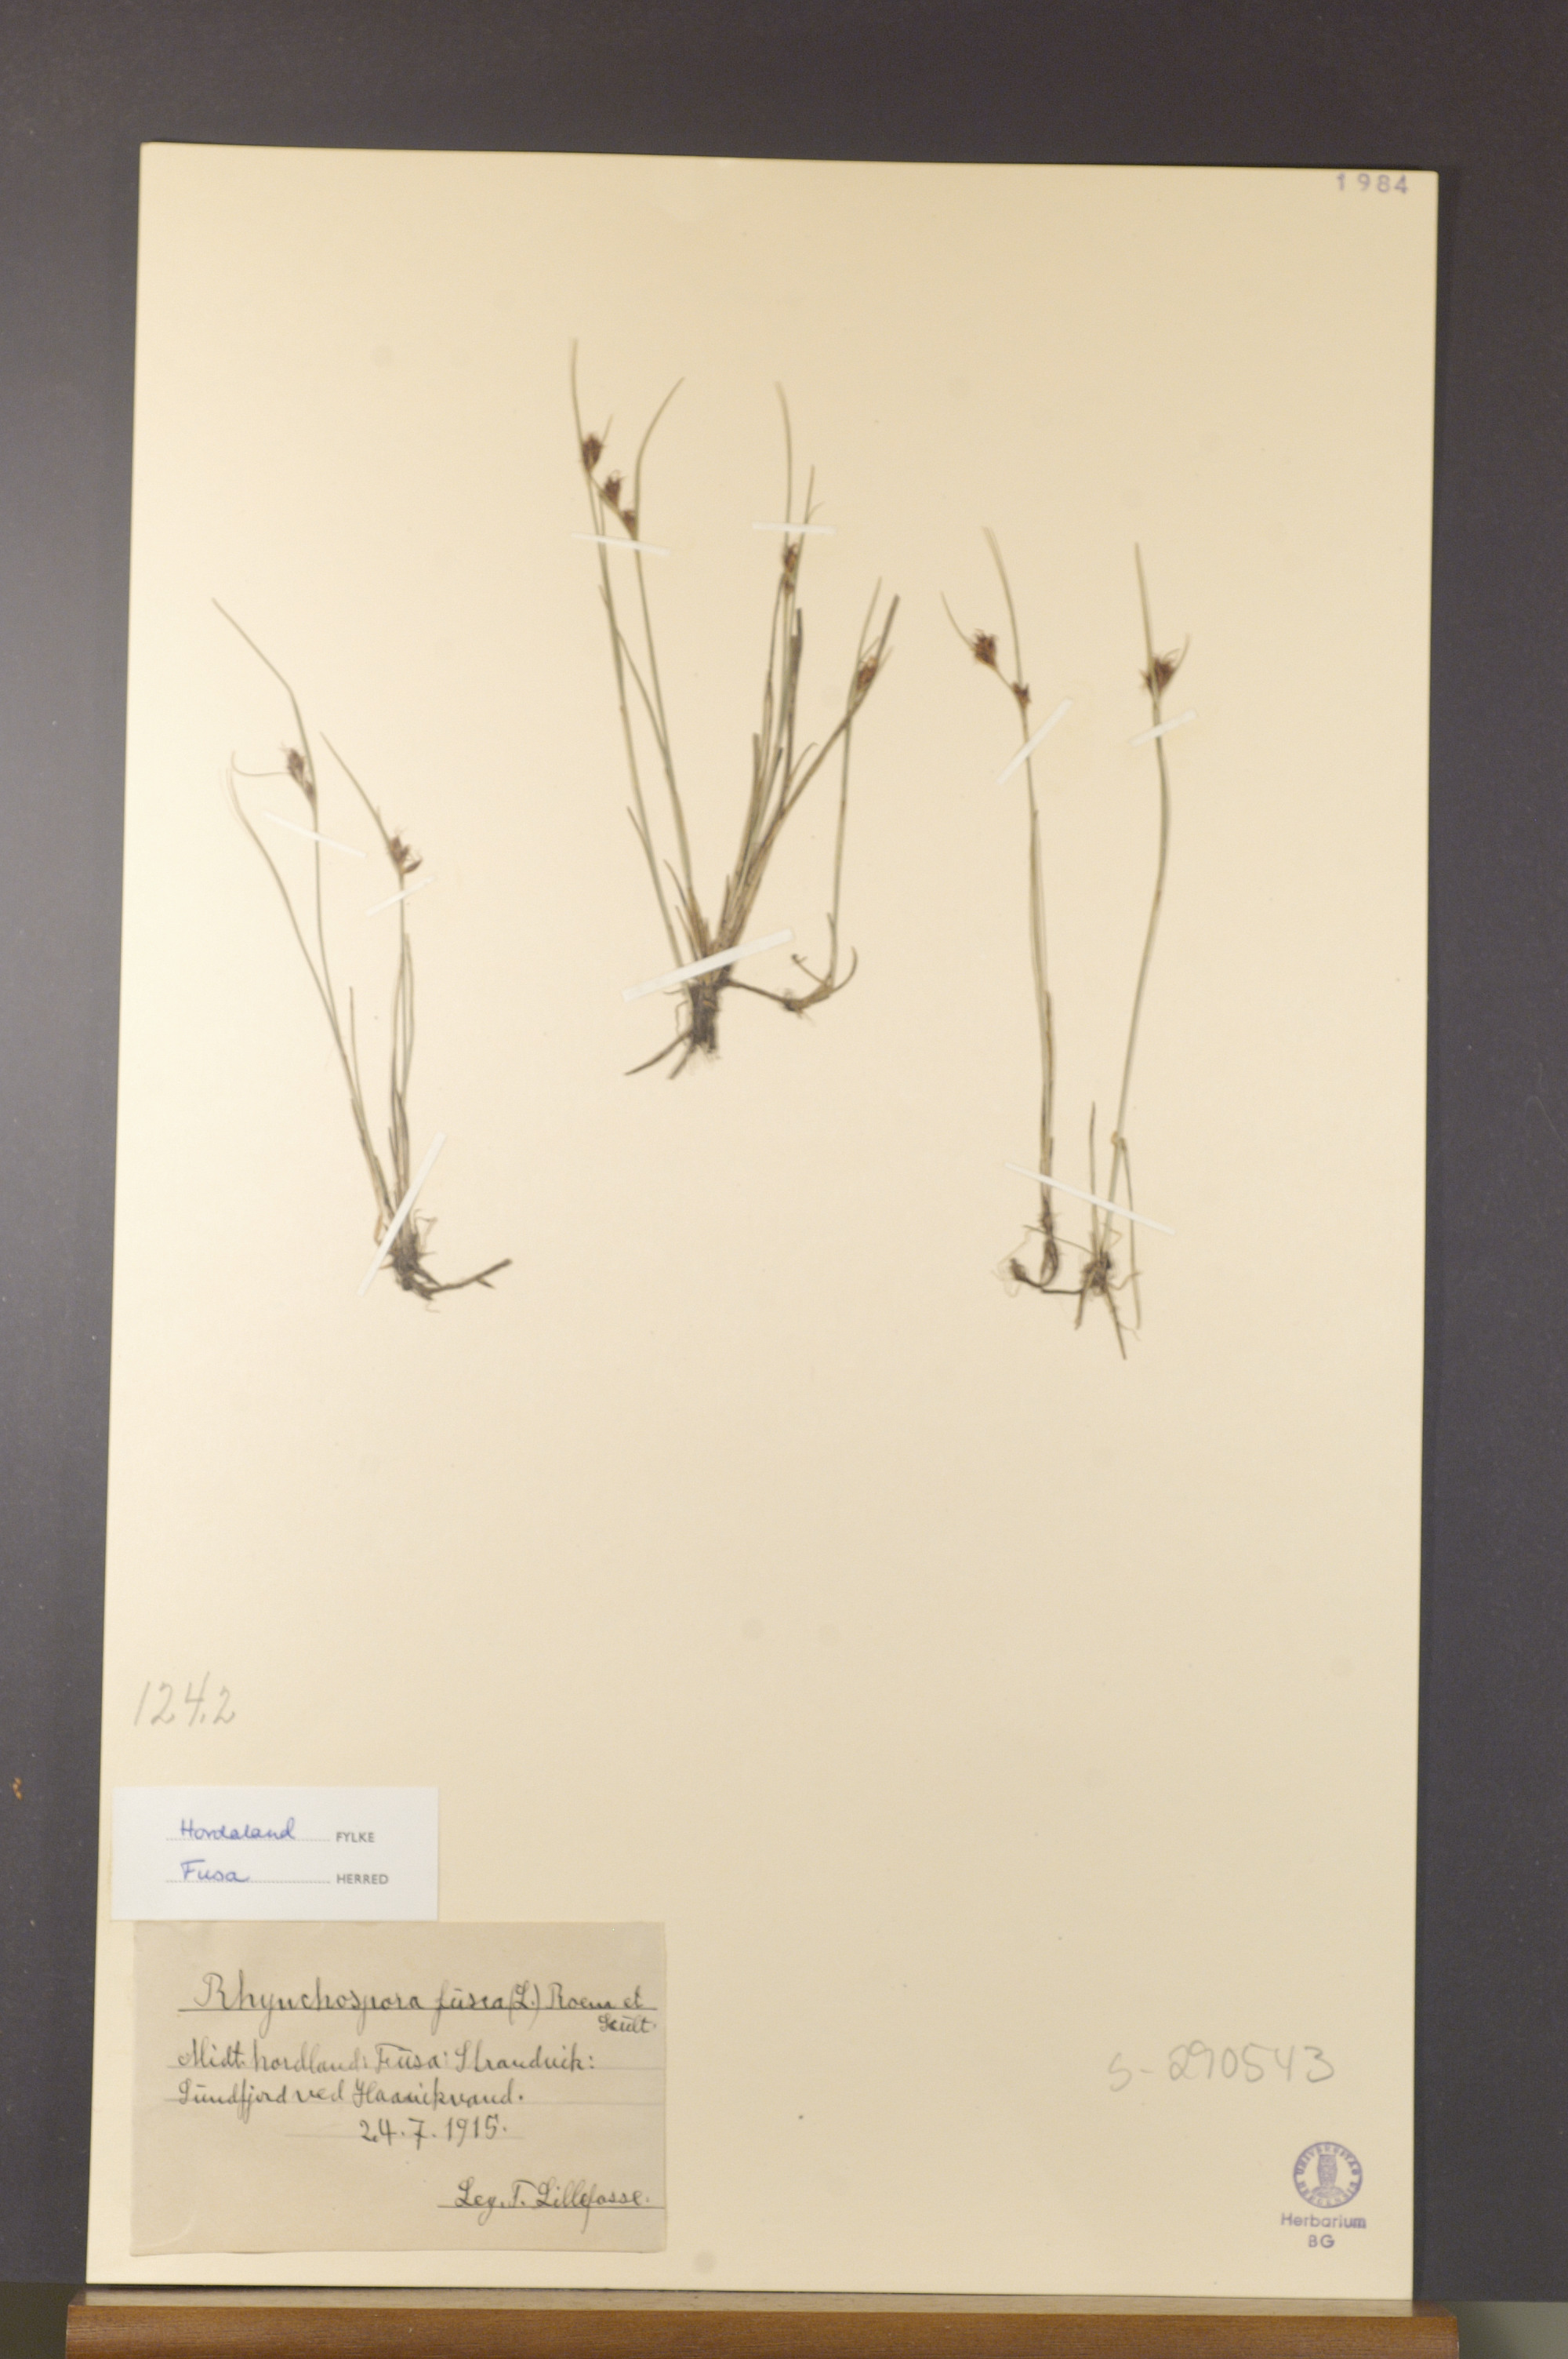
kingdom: Plantae
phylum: Tracheophyta
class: Liliopsida
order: Poales
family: Cyperaceae
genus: Rhynchospora
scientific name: Rhynchospora fusca
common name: Brown beak-sedge
